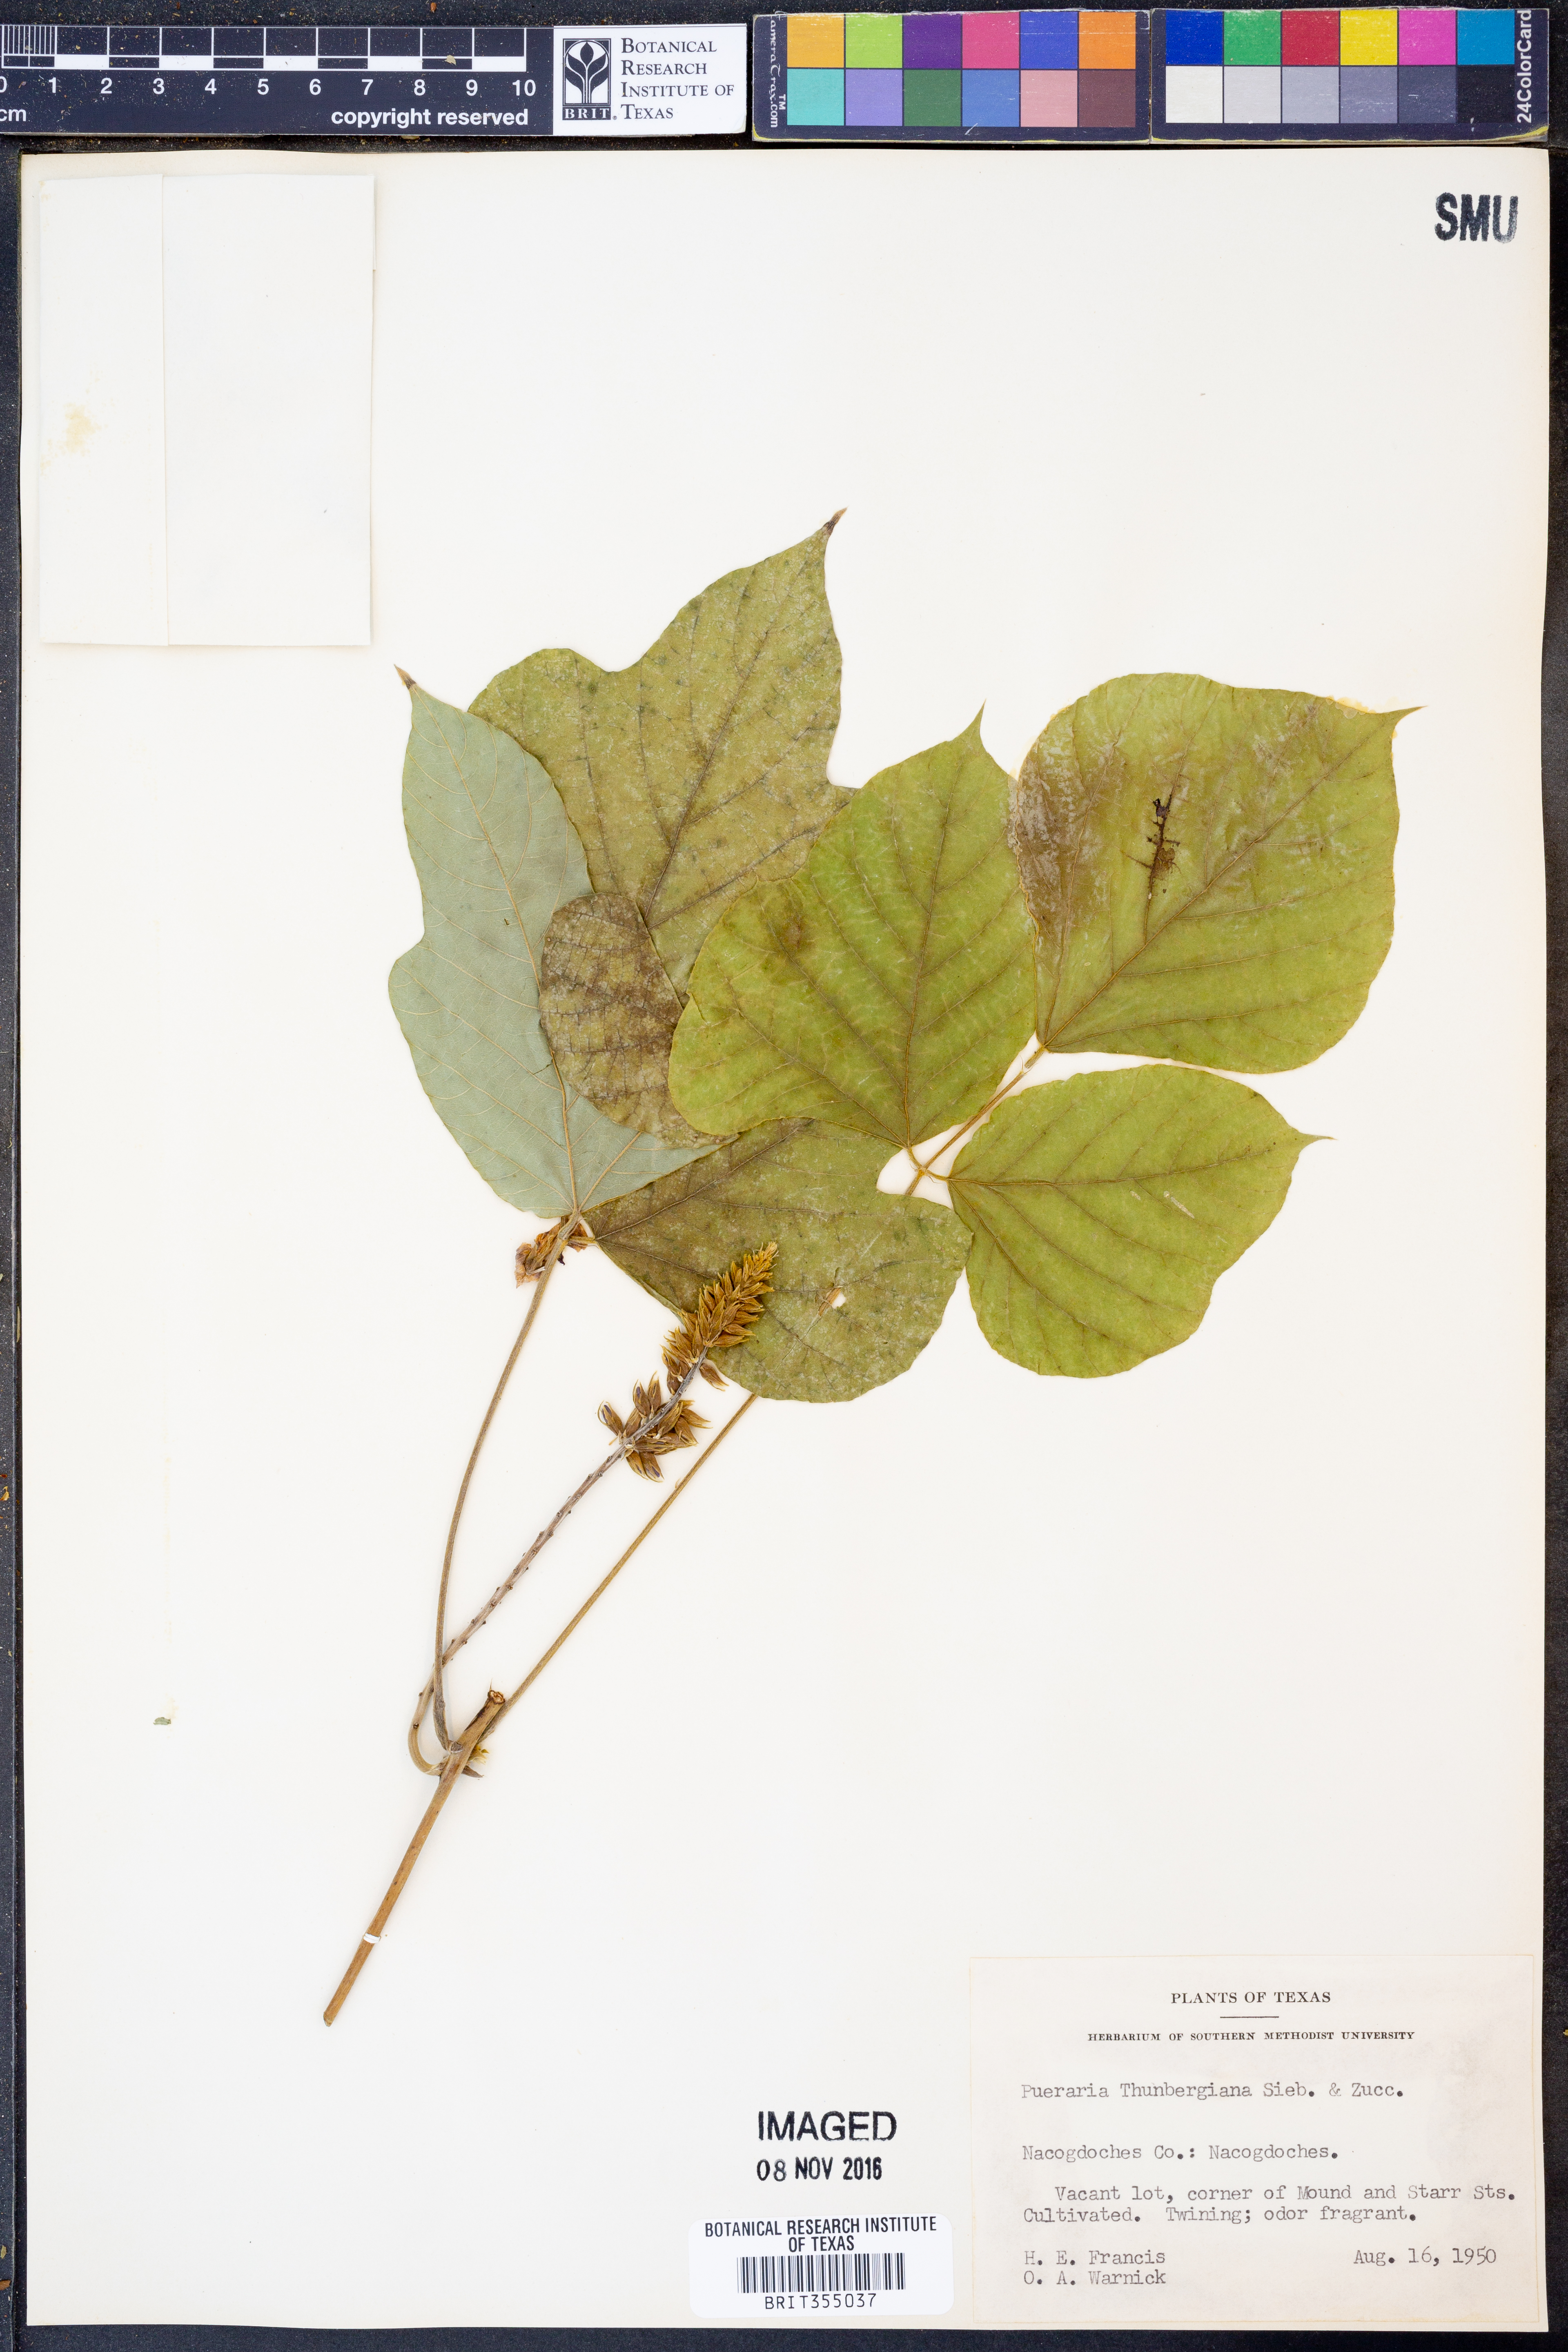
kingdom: Plantae
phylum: Tracheophyta
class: Magnoliopsida
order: Fabales
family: Fabaceae
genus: Pueraria
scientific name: Pueraria montana
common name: Kudzu
